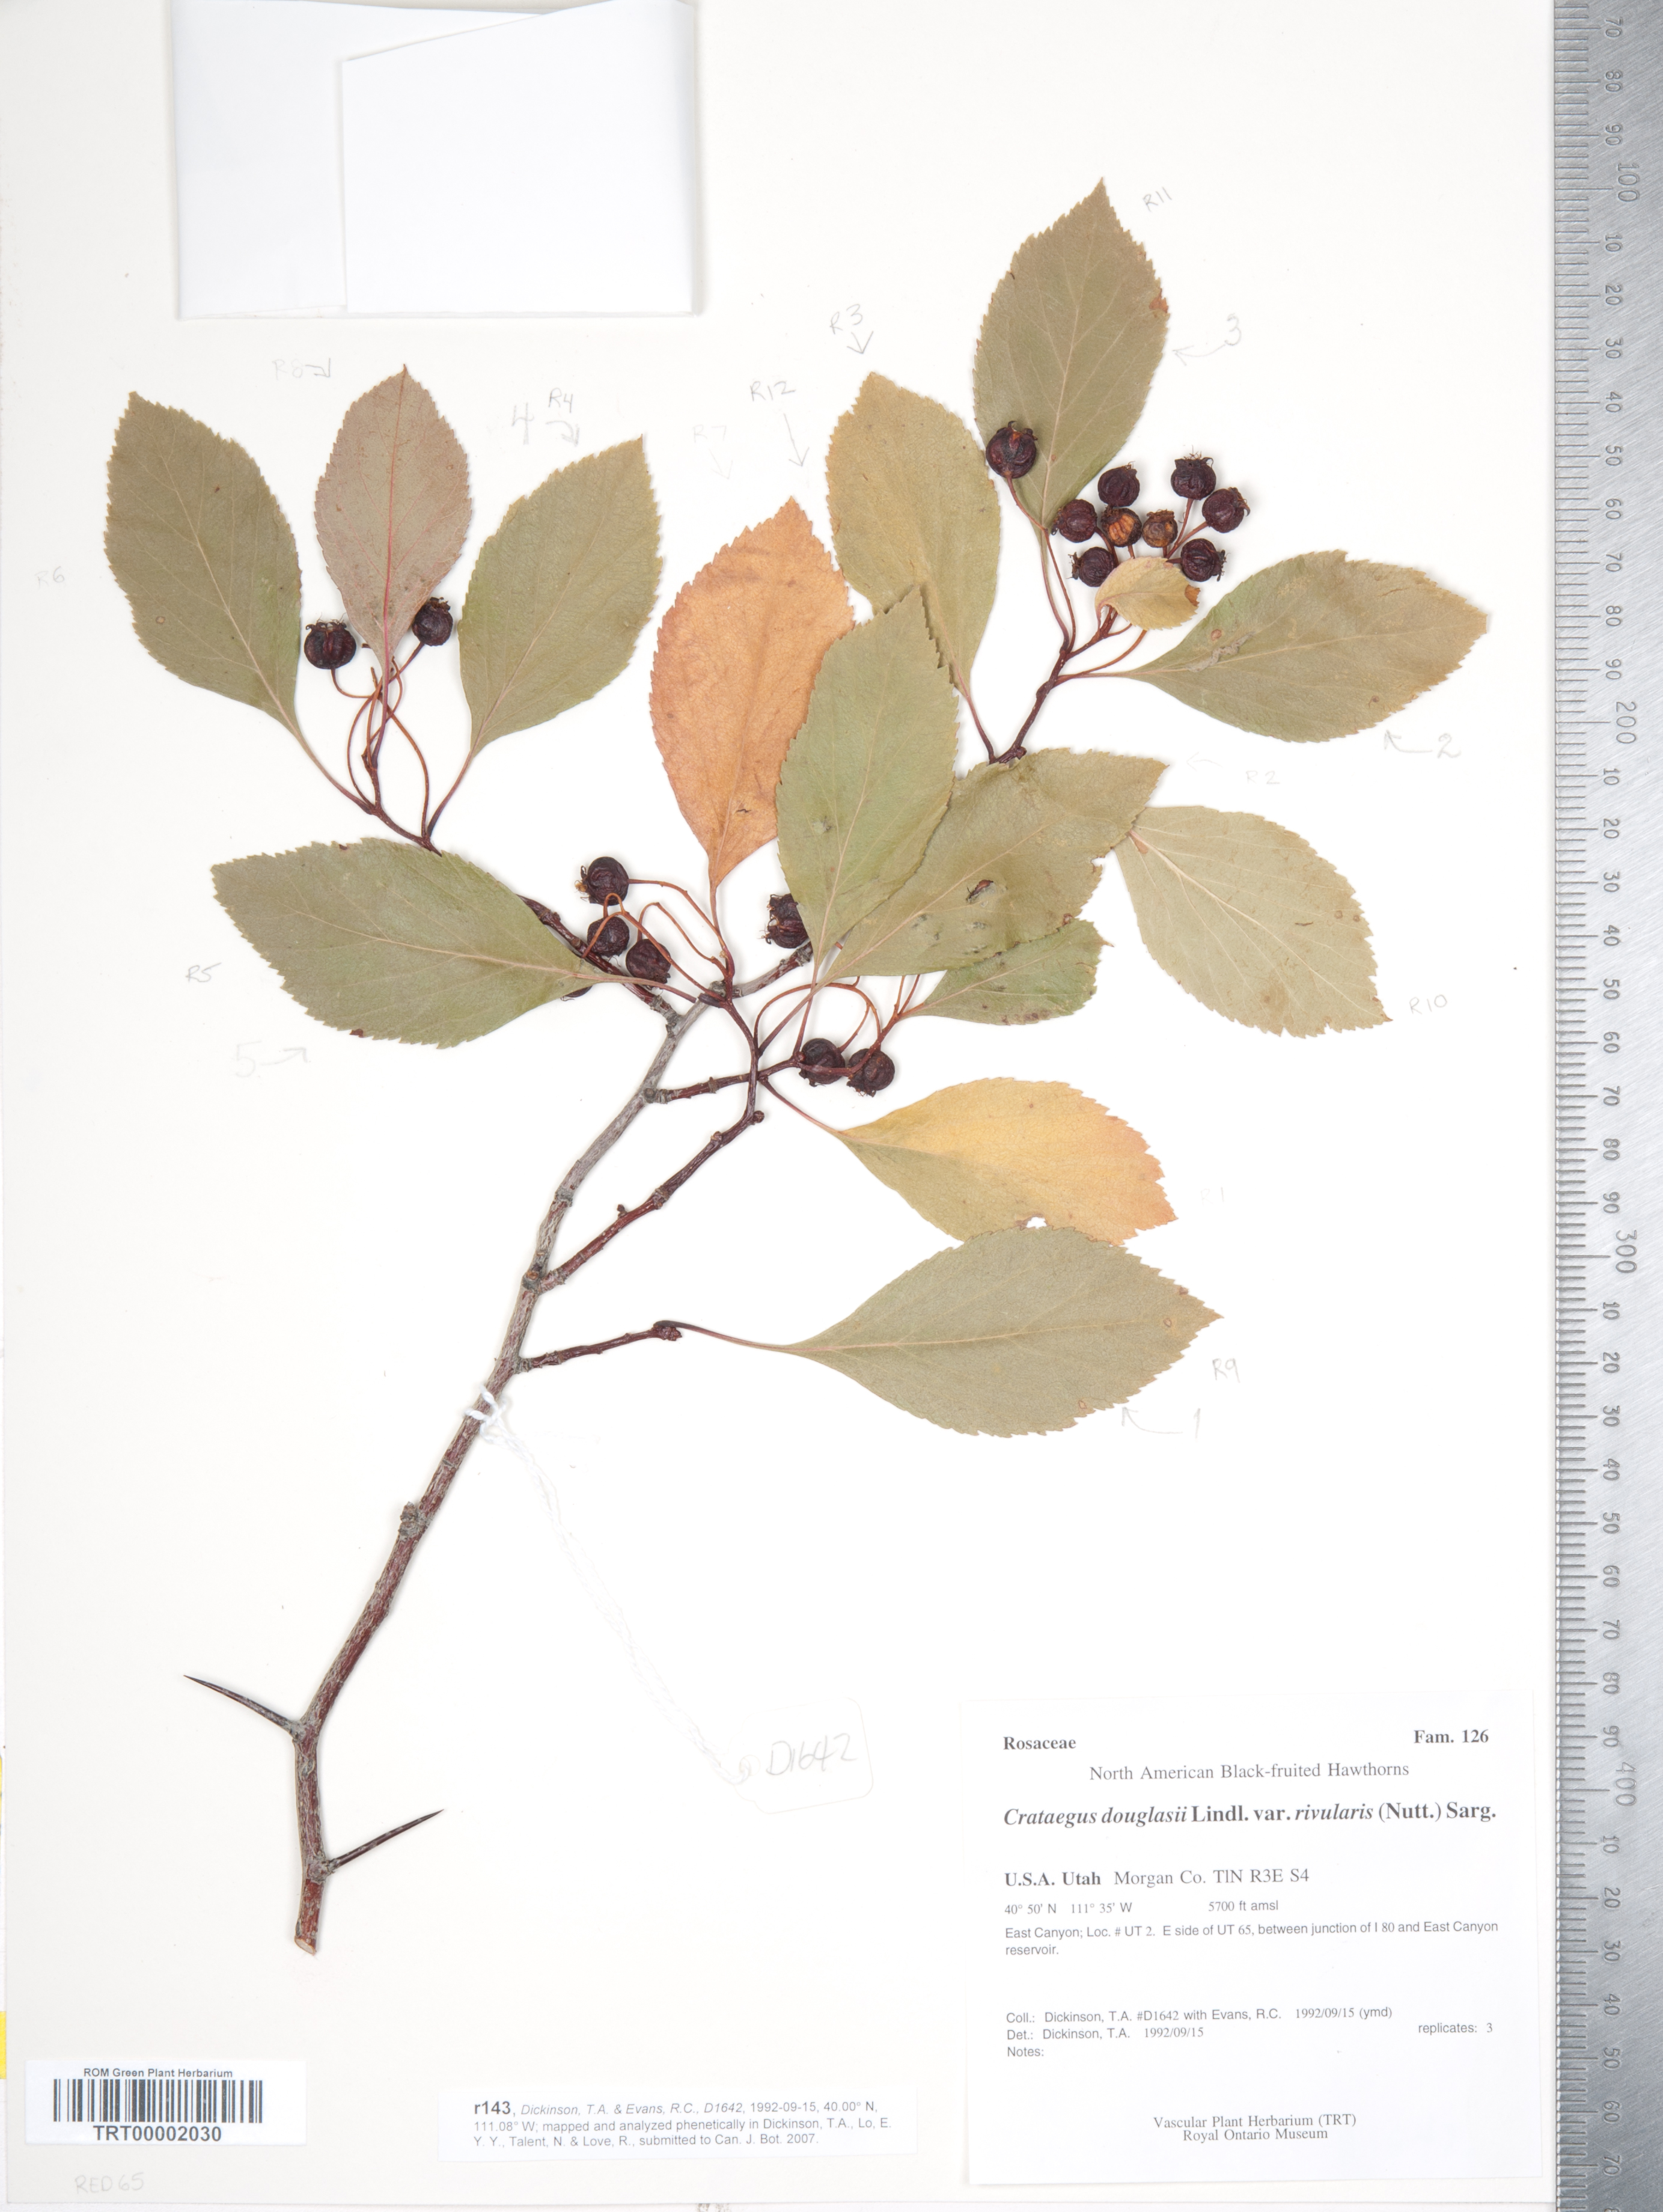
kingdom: Plantae
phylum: Tracheophyta
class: Magnoliopsida
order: Rosales
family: Rosaceae
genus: Crataegus
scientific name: Crataegus rivularis
